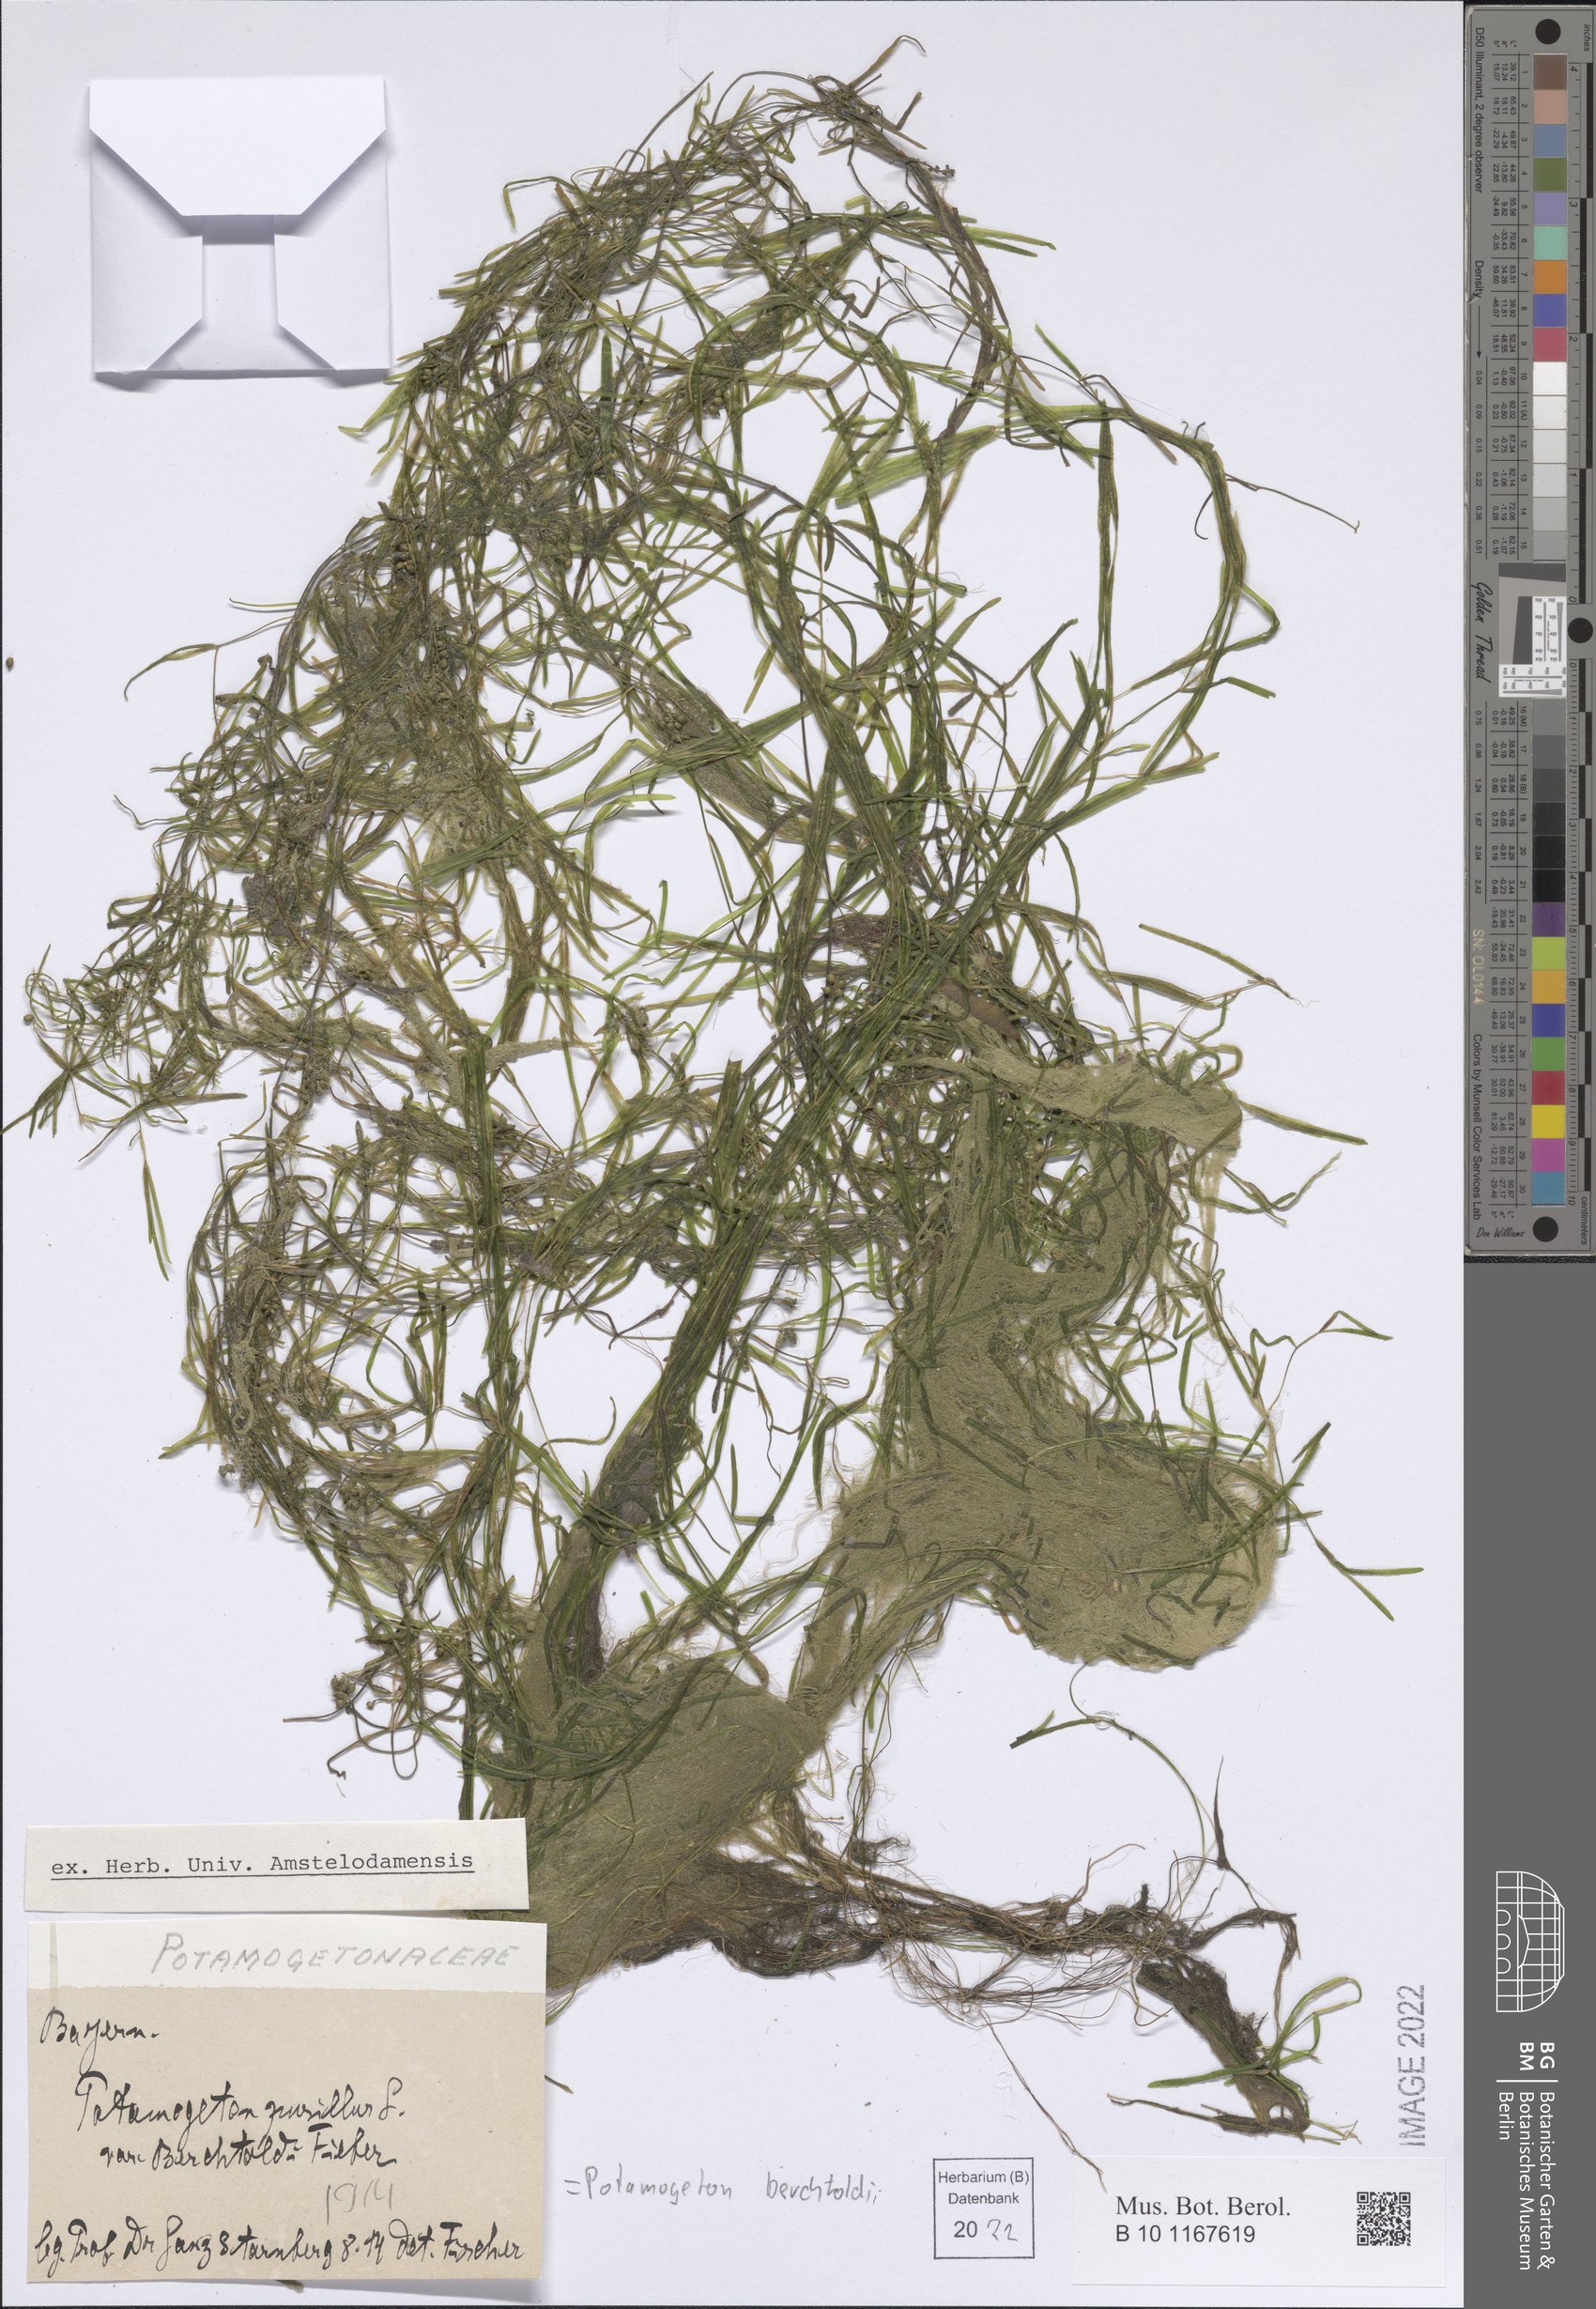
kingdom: Plantae
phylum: Tracheophyta
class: Liliopsida
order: Alismatales
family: Potamogetonaceae
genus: Potamogeton
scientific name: Potamogeton berchtoldii
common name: Small pondweed
